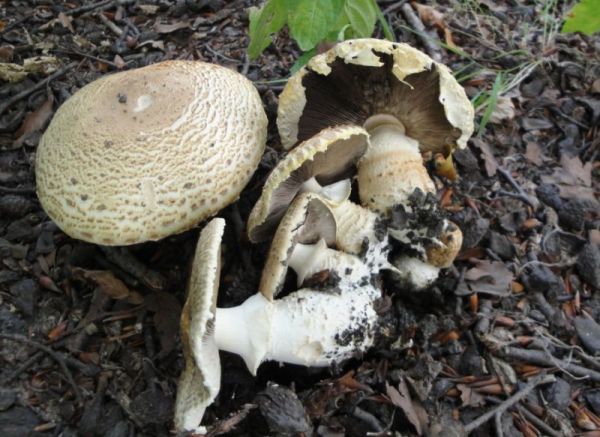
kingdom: Fungi
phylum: Basidiomycota
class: Agaricomycetes
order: Agaricales
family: Agaricaceae
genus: Agaricus
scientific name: Agaricus augustus
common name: prægtig champignon
